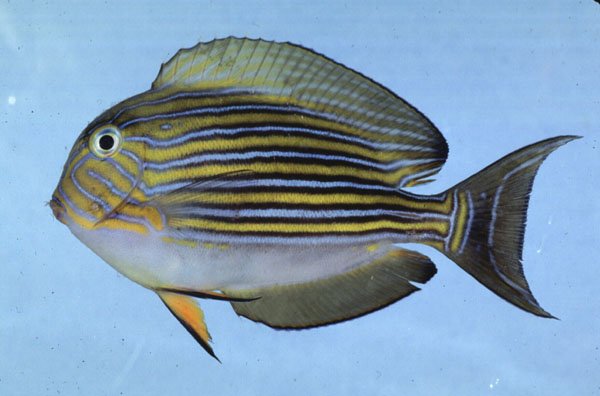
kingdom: Animalia
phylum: Chordata
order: Perciformes
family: Acanthuridae
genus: Acanthurus
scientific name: Acanthurus lineatus
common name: Striped surgeonfish
